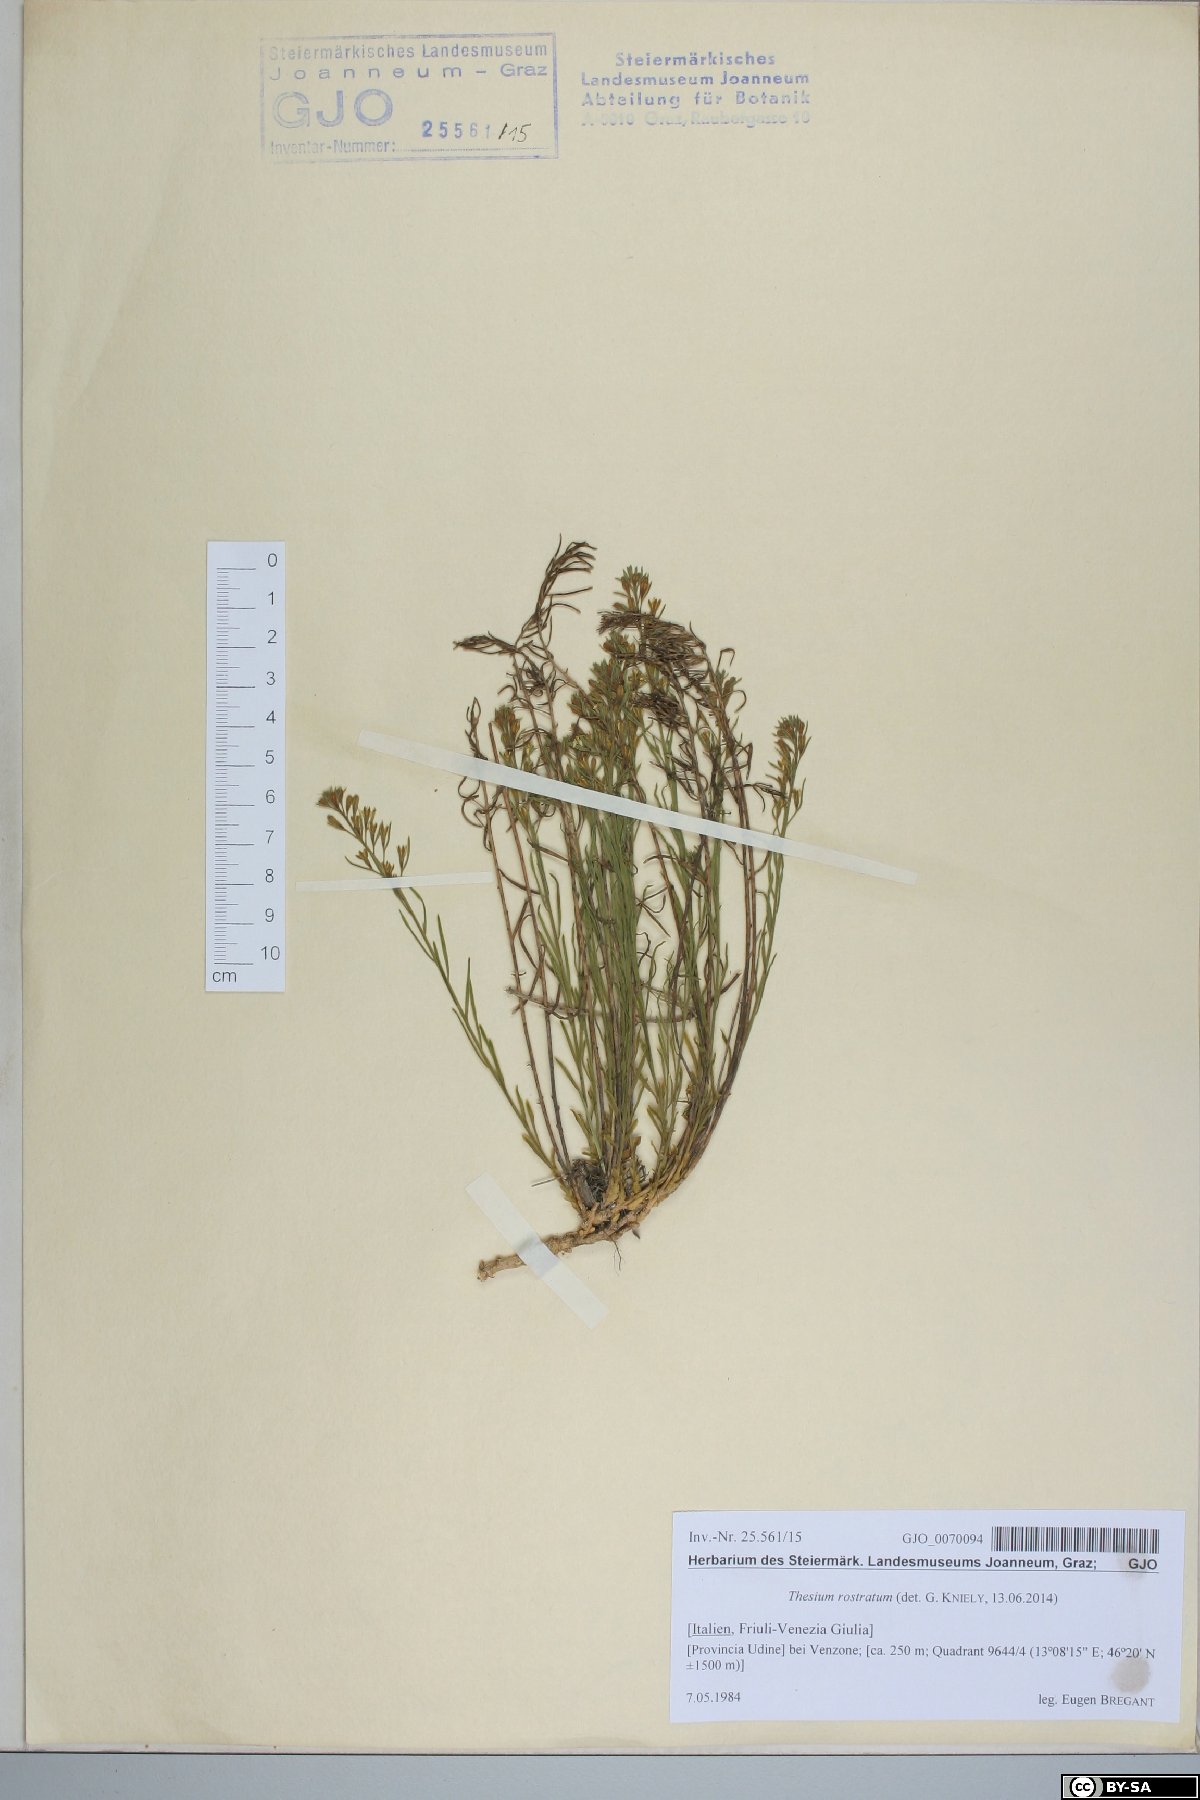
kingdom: Plantae
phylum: Tracheophyta
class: Magnoliopsida
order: Santalales
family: Thesiaceae
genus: Thesium
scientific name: Thesium rostratum
